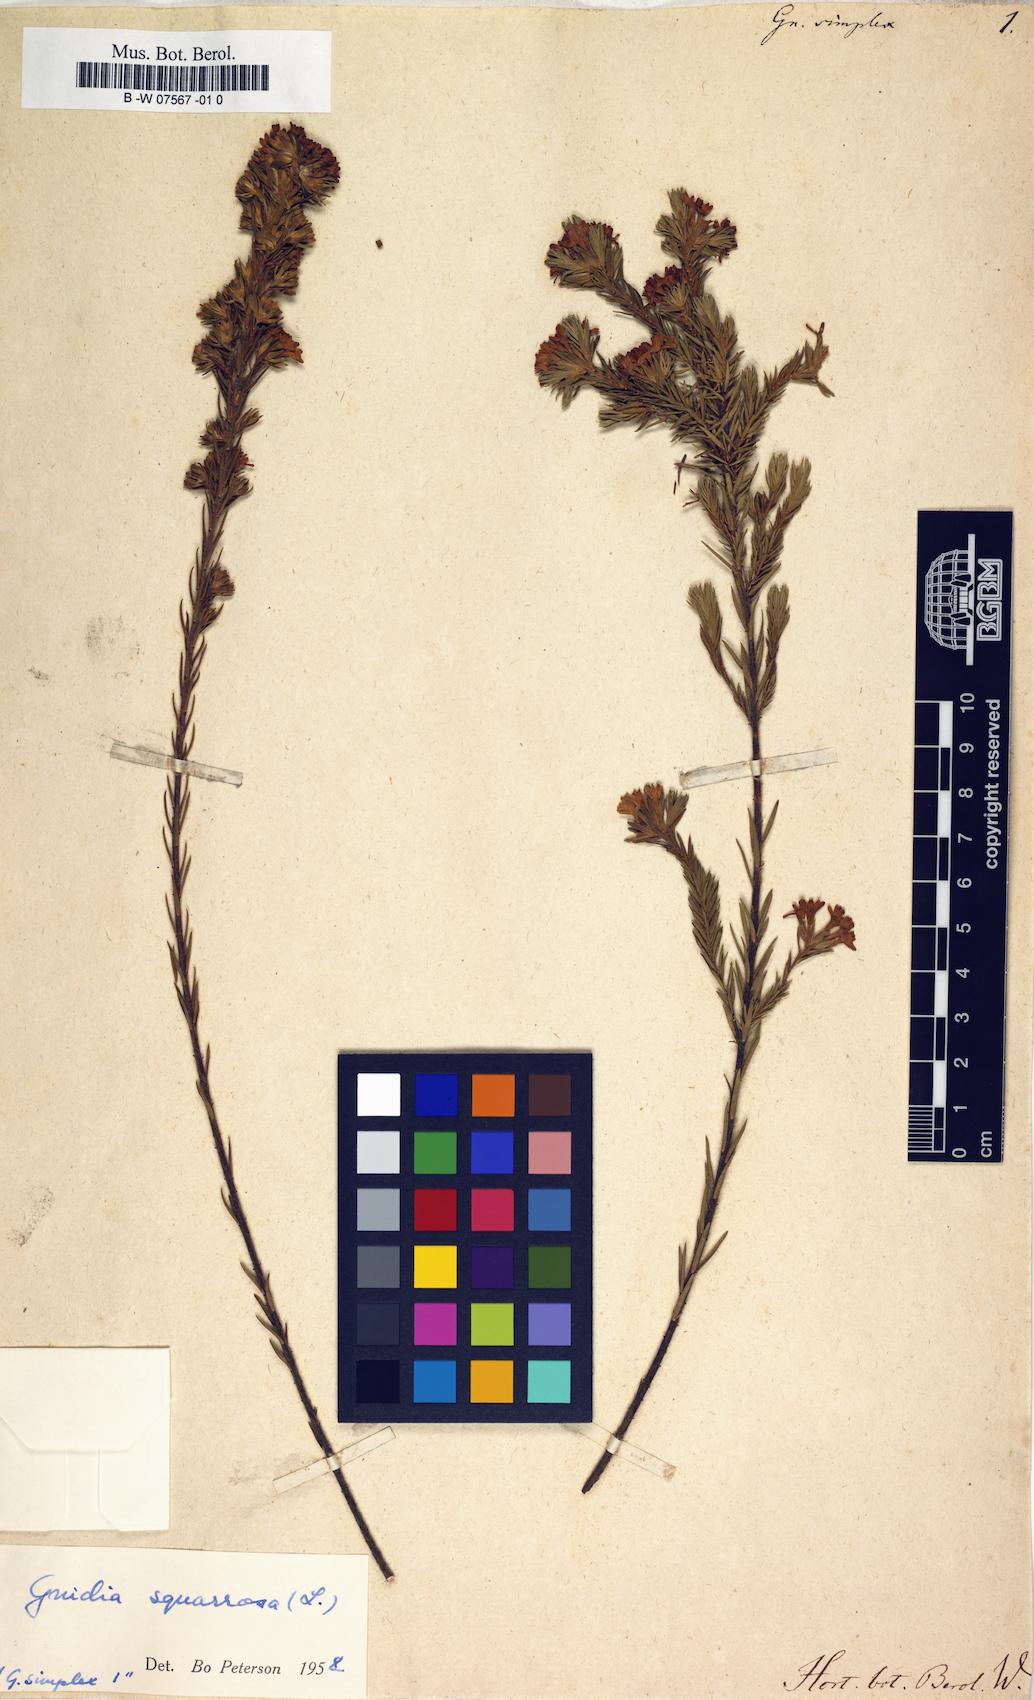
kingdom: Plantae
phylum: Tracheophyta
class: Magnoliopsida
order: Malvales
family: Thymelaeaceae
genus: Gnidia
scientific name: Gnidia simplex
